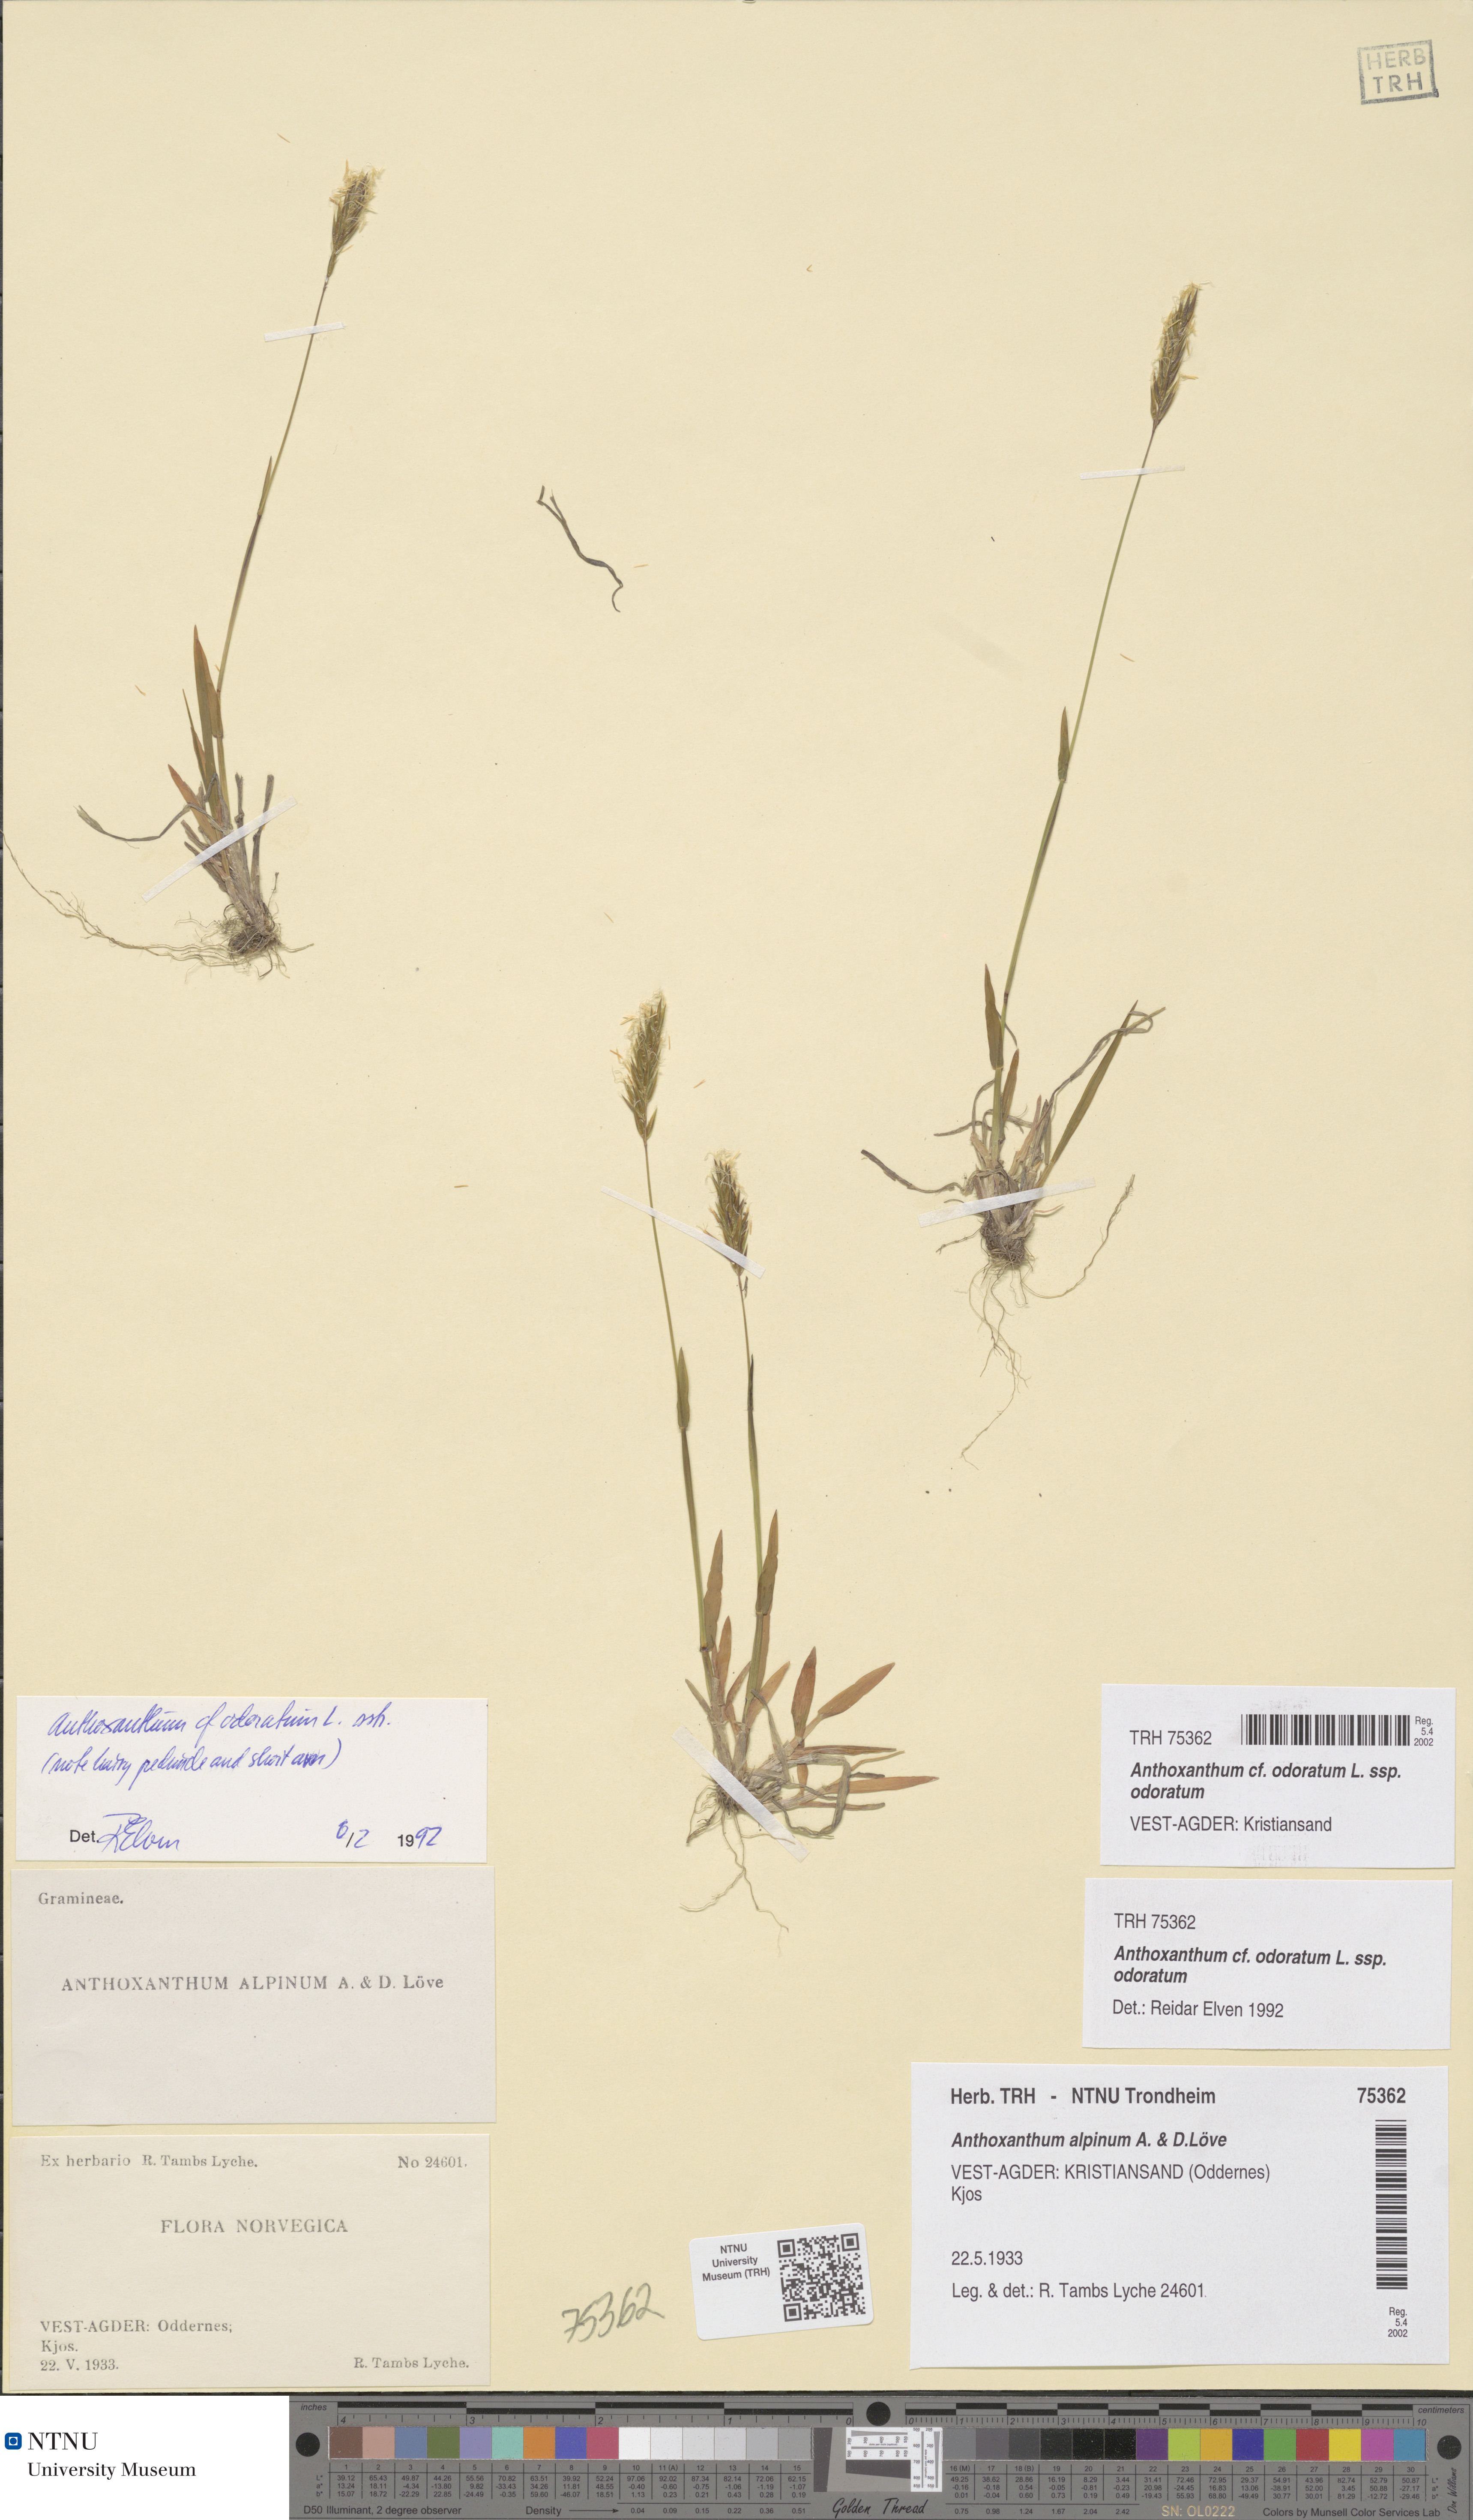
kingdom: Plantae
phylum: Tracheophyta
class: Liliopsida
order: Poales
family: Poaceae
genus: Anthoxanthum
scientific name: Anthoxanthum odoratum
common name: Sweet vernalgrass
